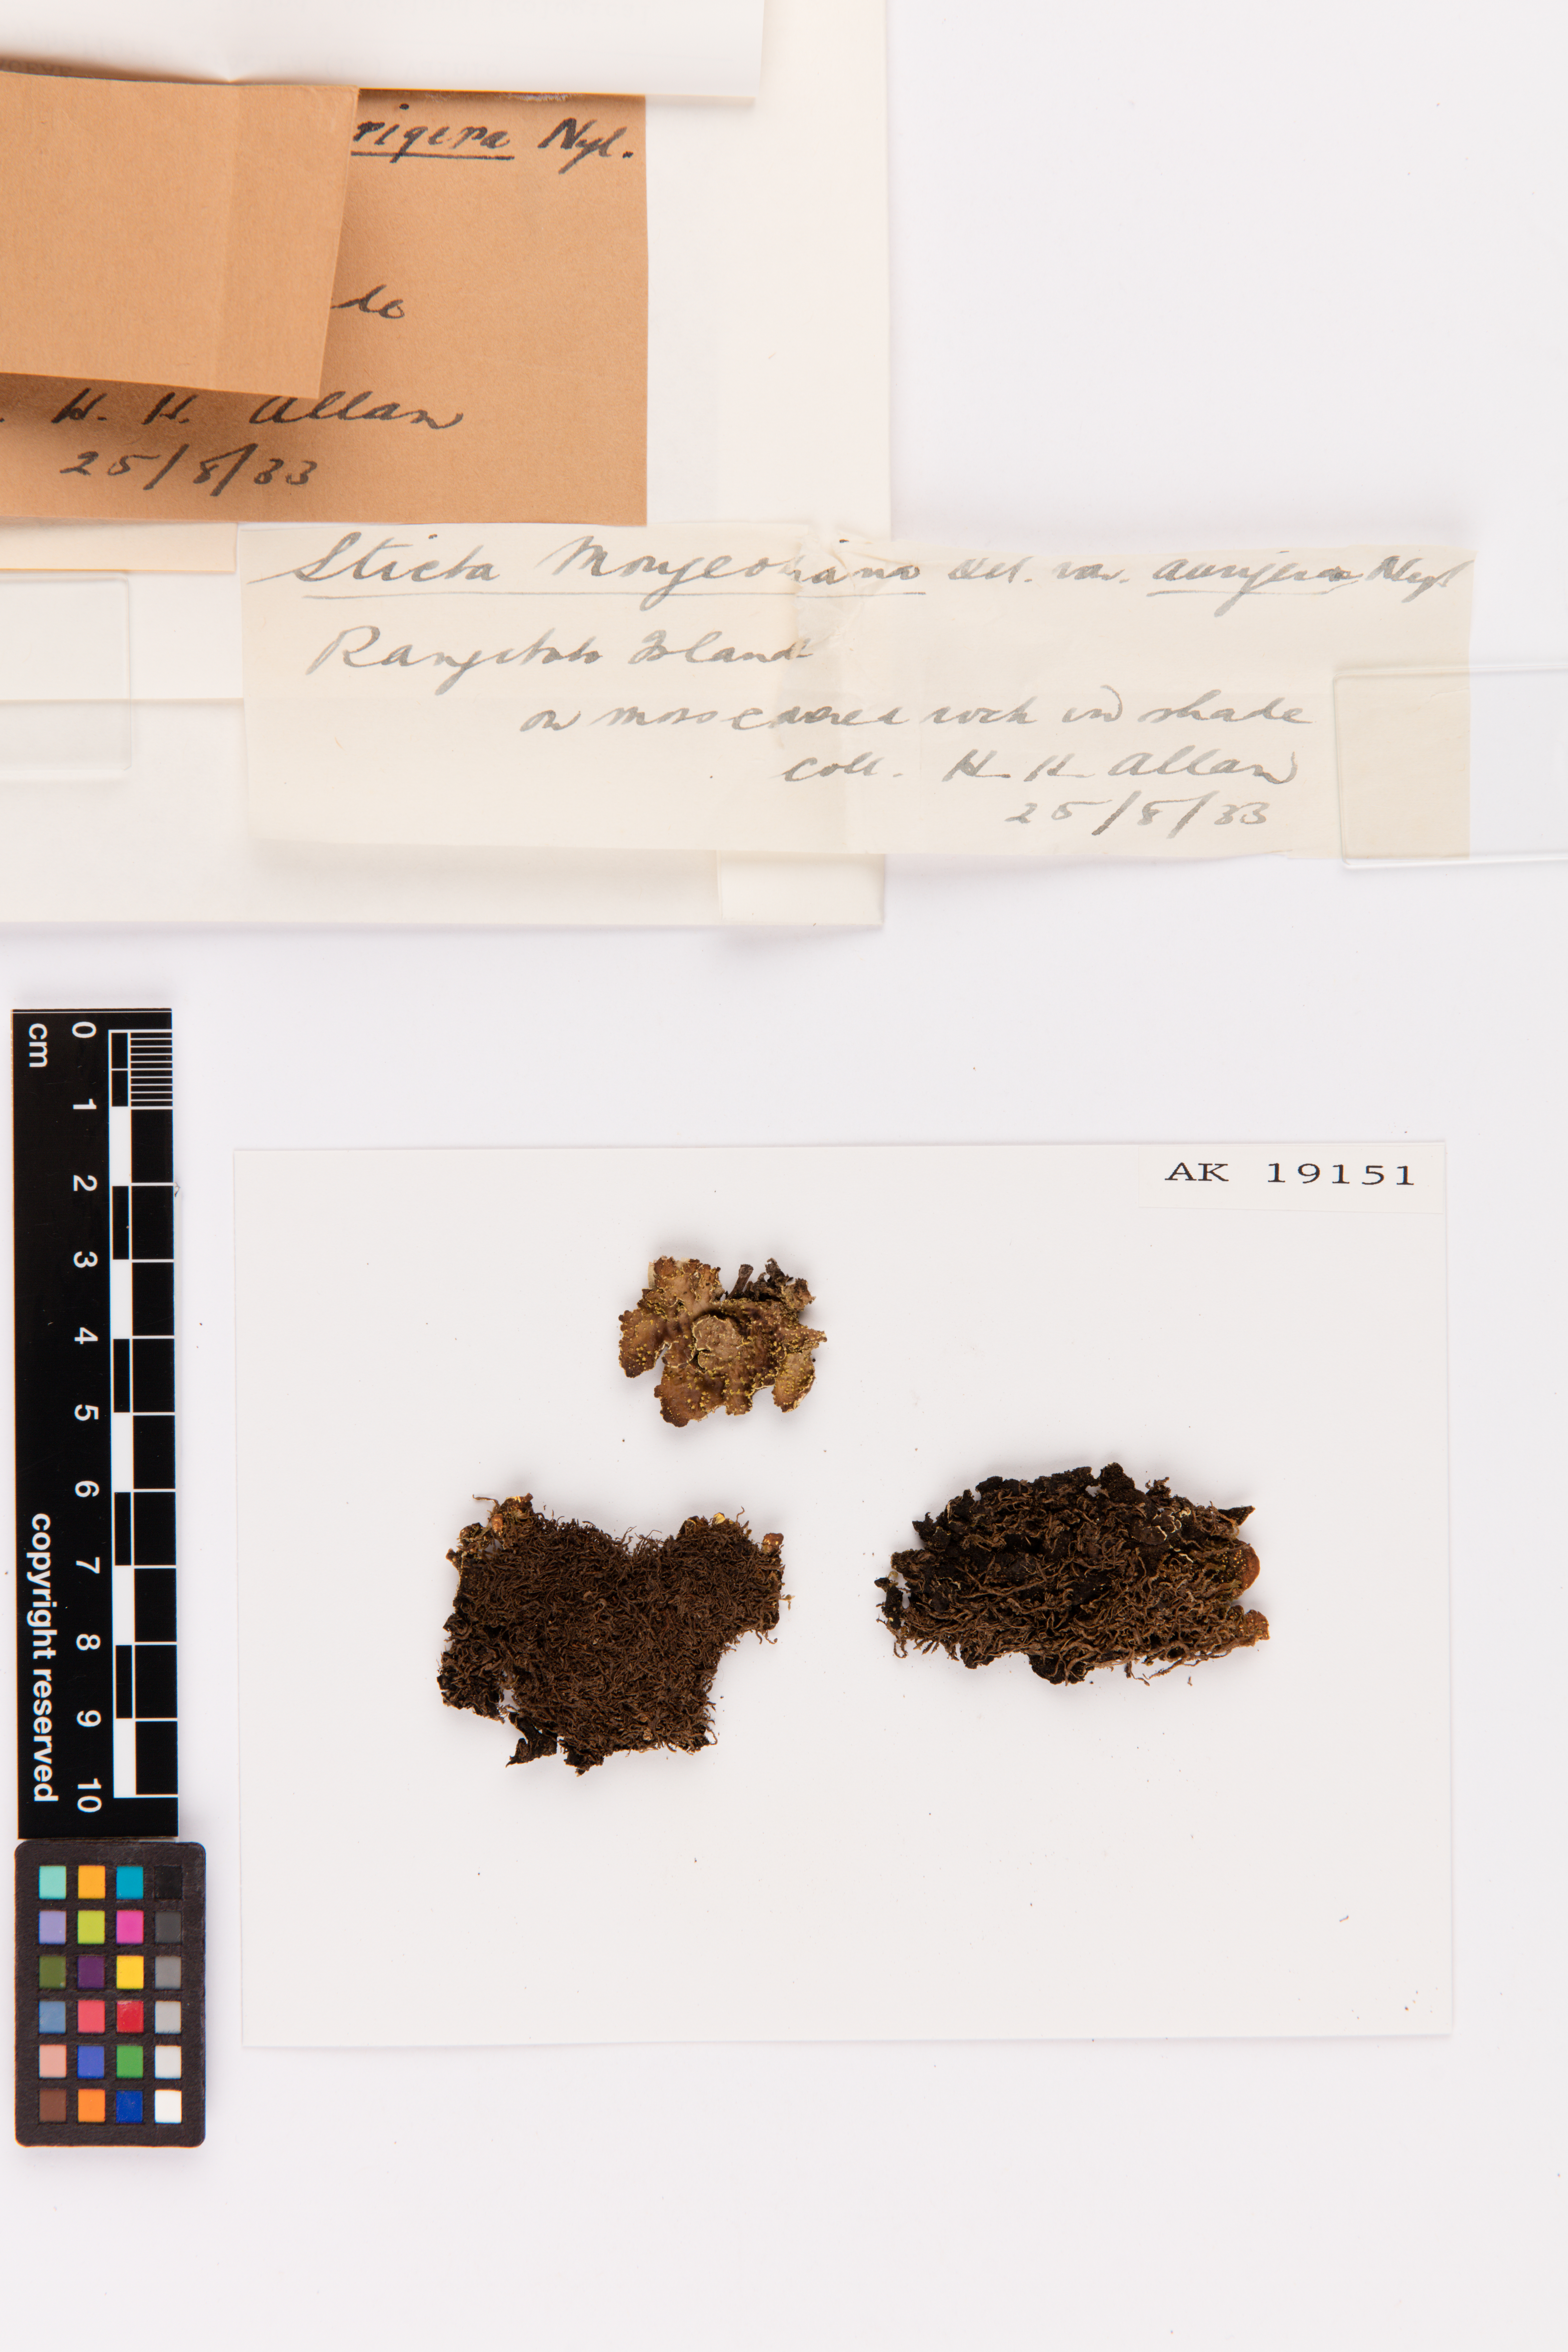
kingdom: Fungi
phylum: Ascomycota
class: Lecanoromycetes
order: Peltigerales
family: Lobariaceae
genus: Pseudocyphellaria
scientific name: Pseudocyphellaria crocata
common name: Golden specklebelly
